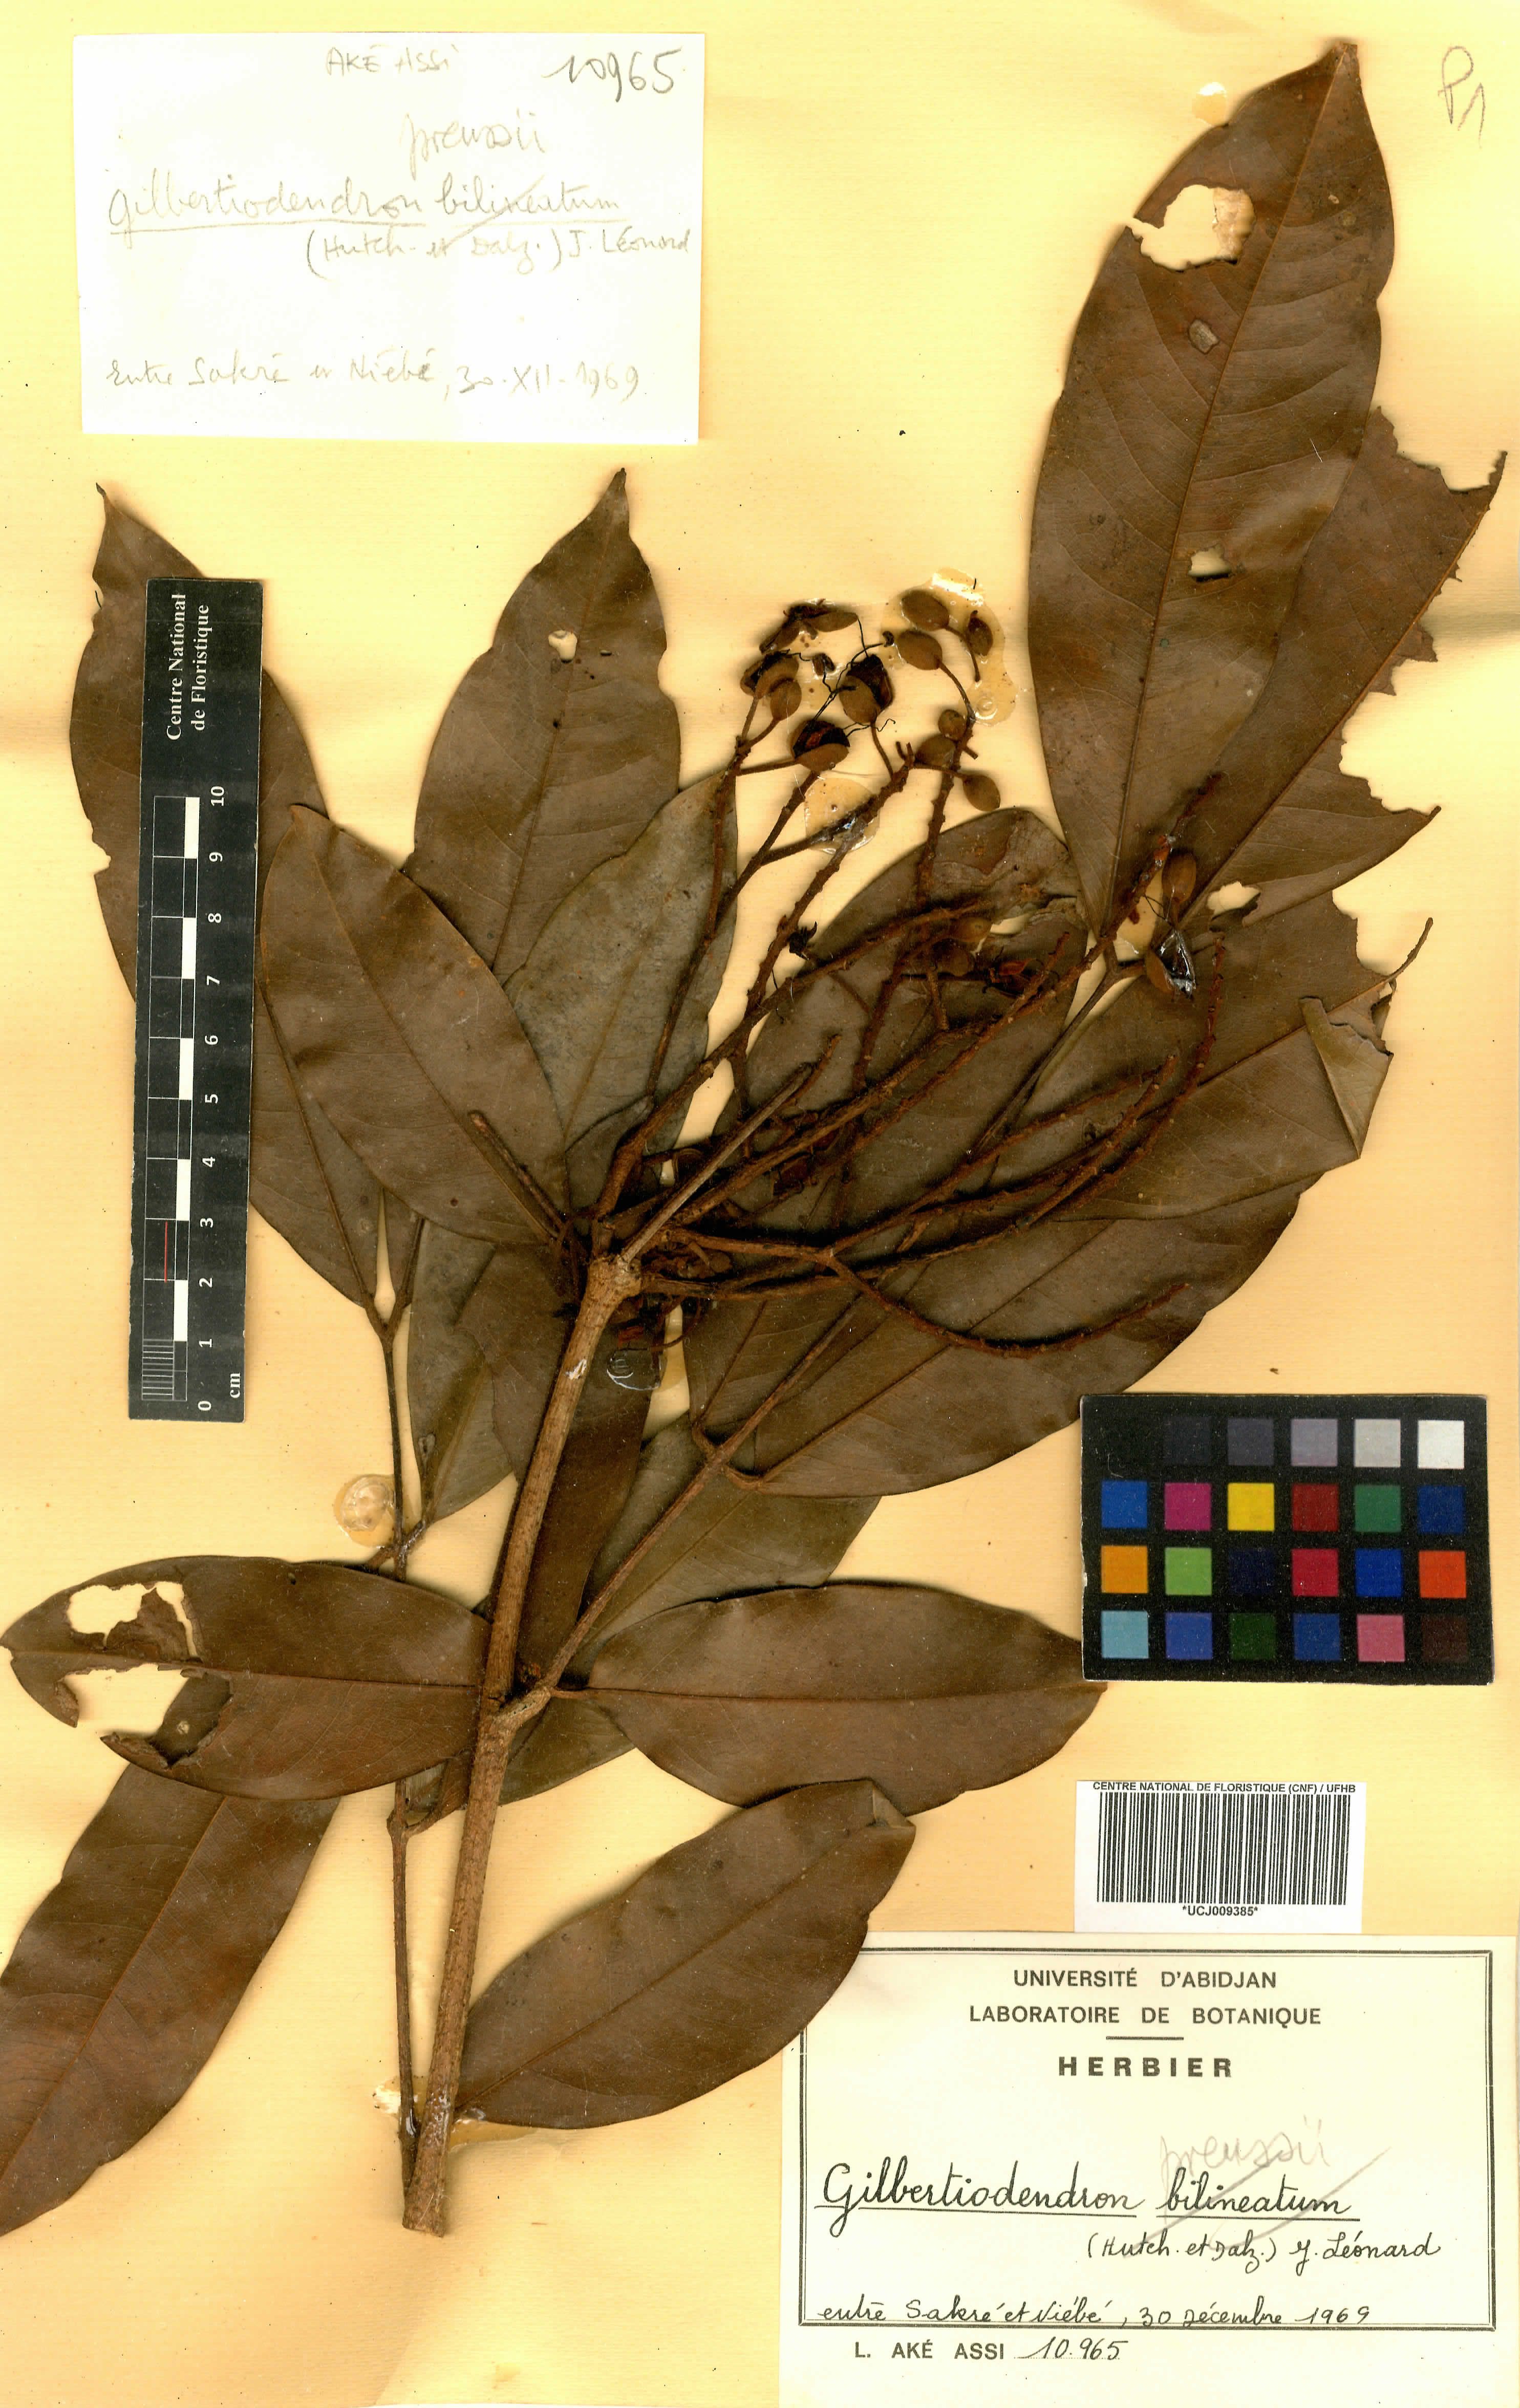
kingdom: Plantae
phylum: Tracheophyta
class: Magnoliopsida
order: Fabales
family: Fabaceae
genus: Gilbertiodendron
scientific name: Gilbertiodendron preussii
